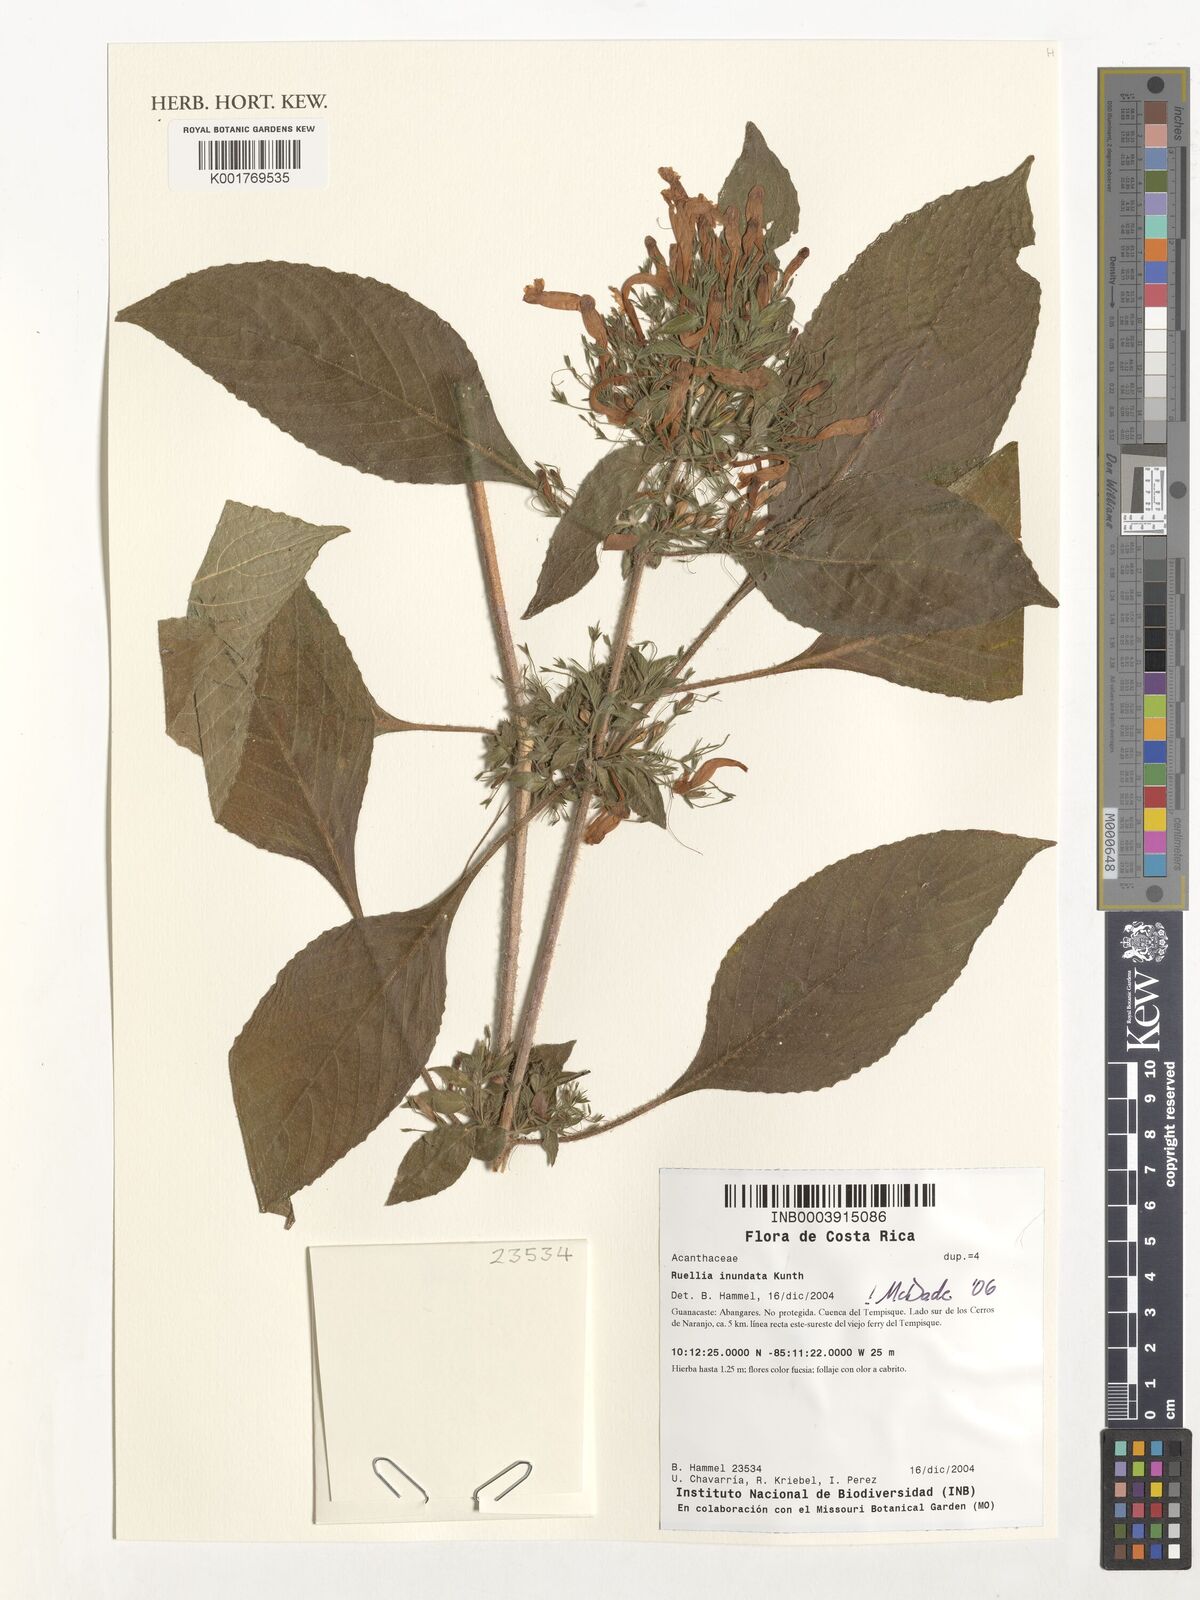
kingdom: Plantae
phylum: Tracheophyta
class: Magnoliopsida
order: Lamiales
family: Acanthaceae
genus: Ruellia
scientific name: Ruellia inundata
